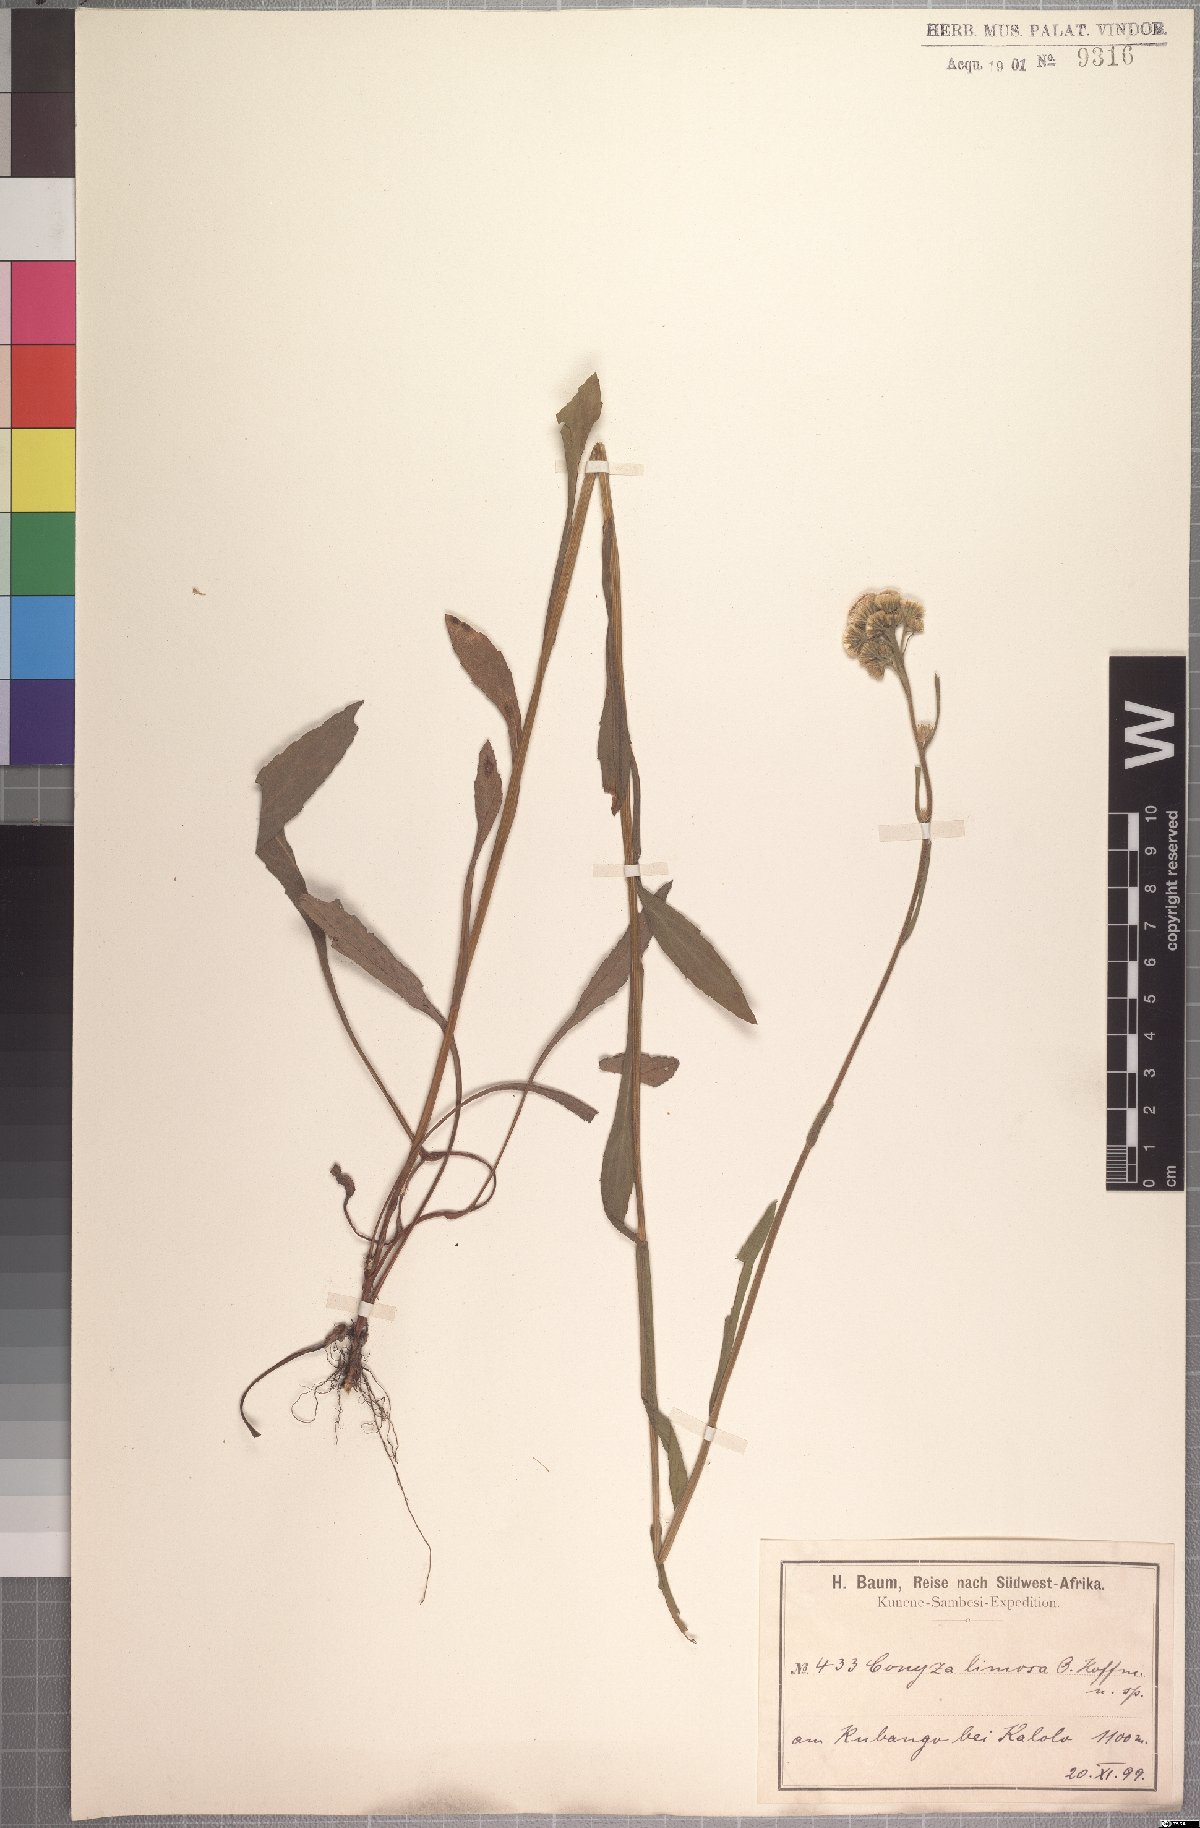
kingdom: Plantae
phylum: Tracheophyta
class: Magnoliopsida
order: Asterales
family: Asteraceae
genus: Conyza
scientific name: Conyza limosa
